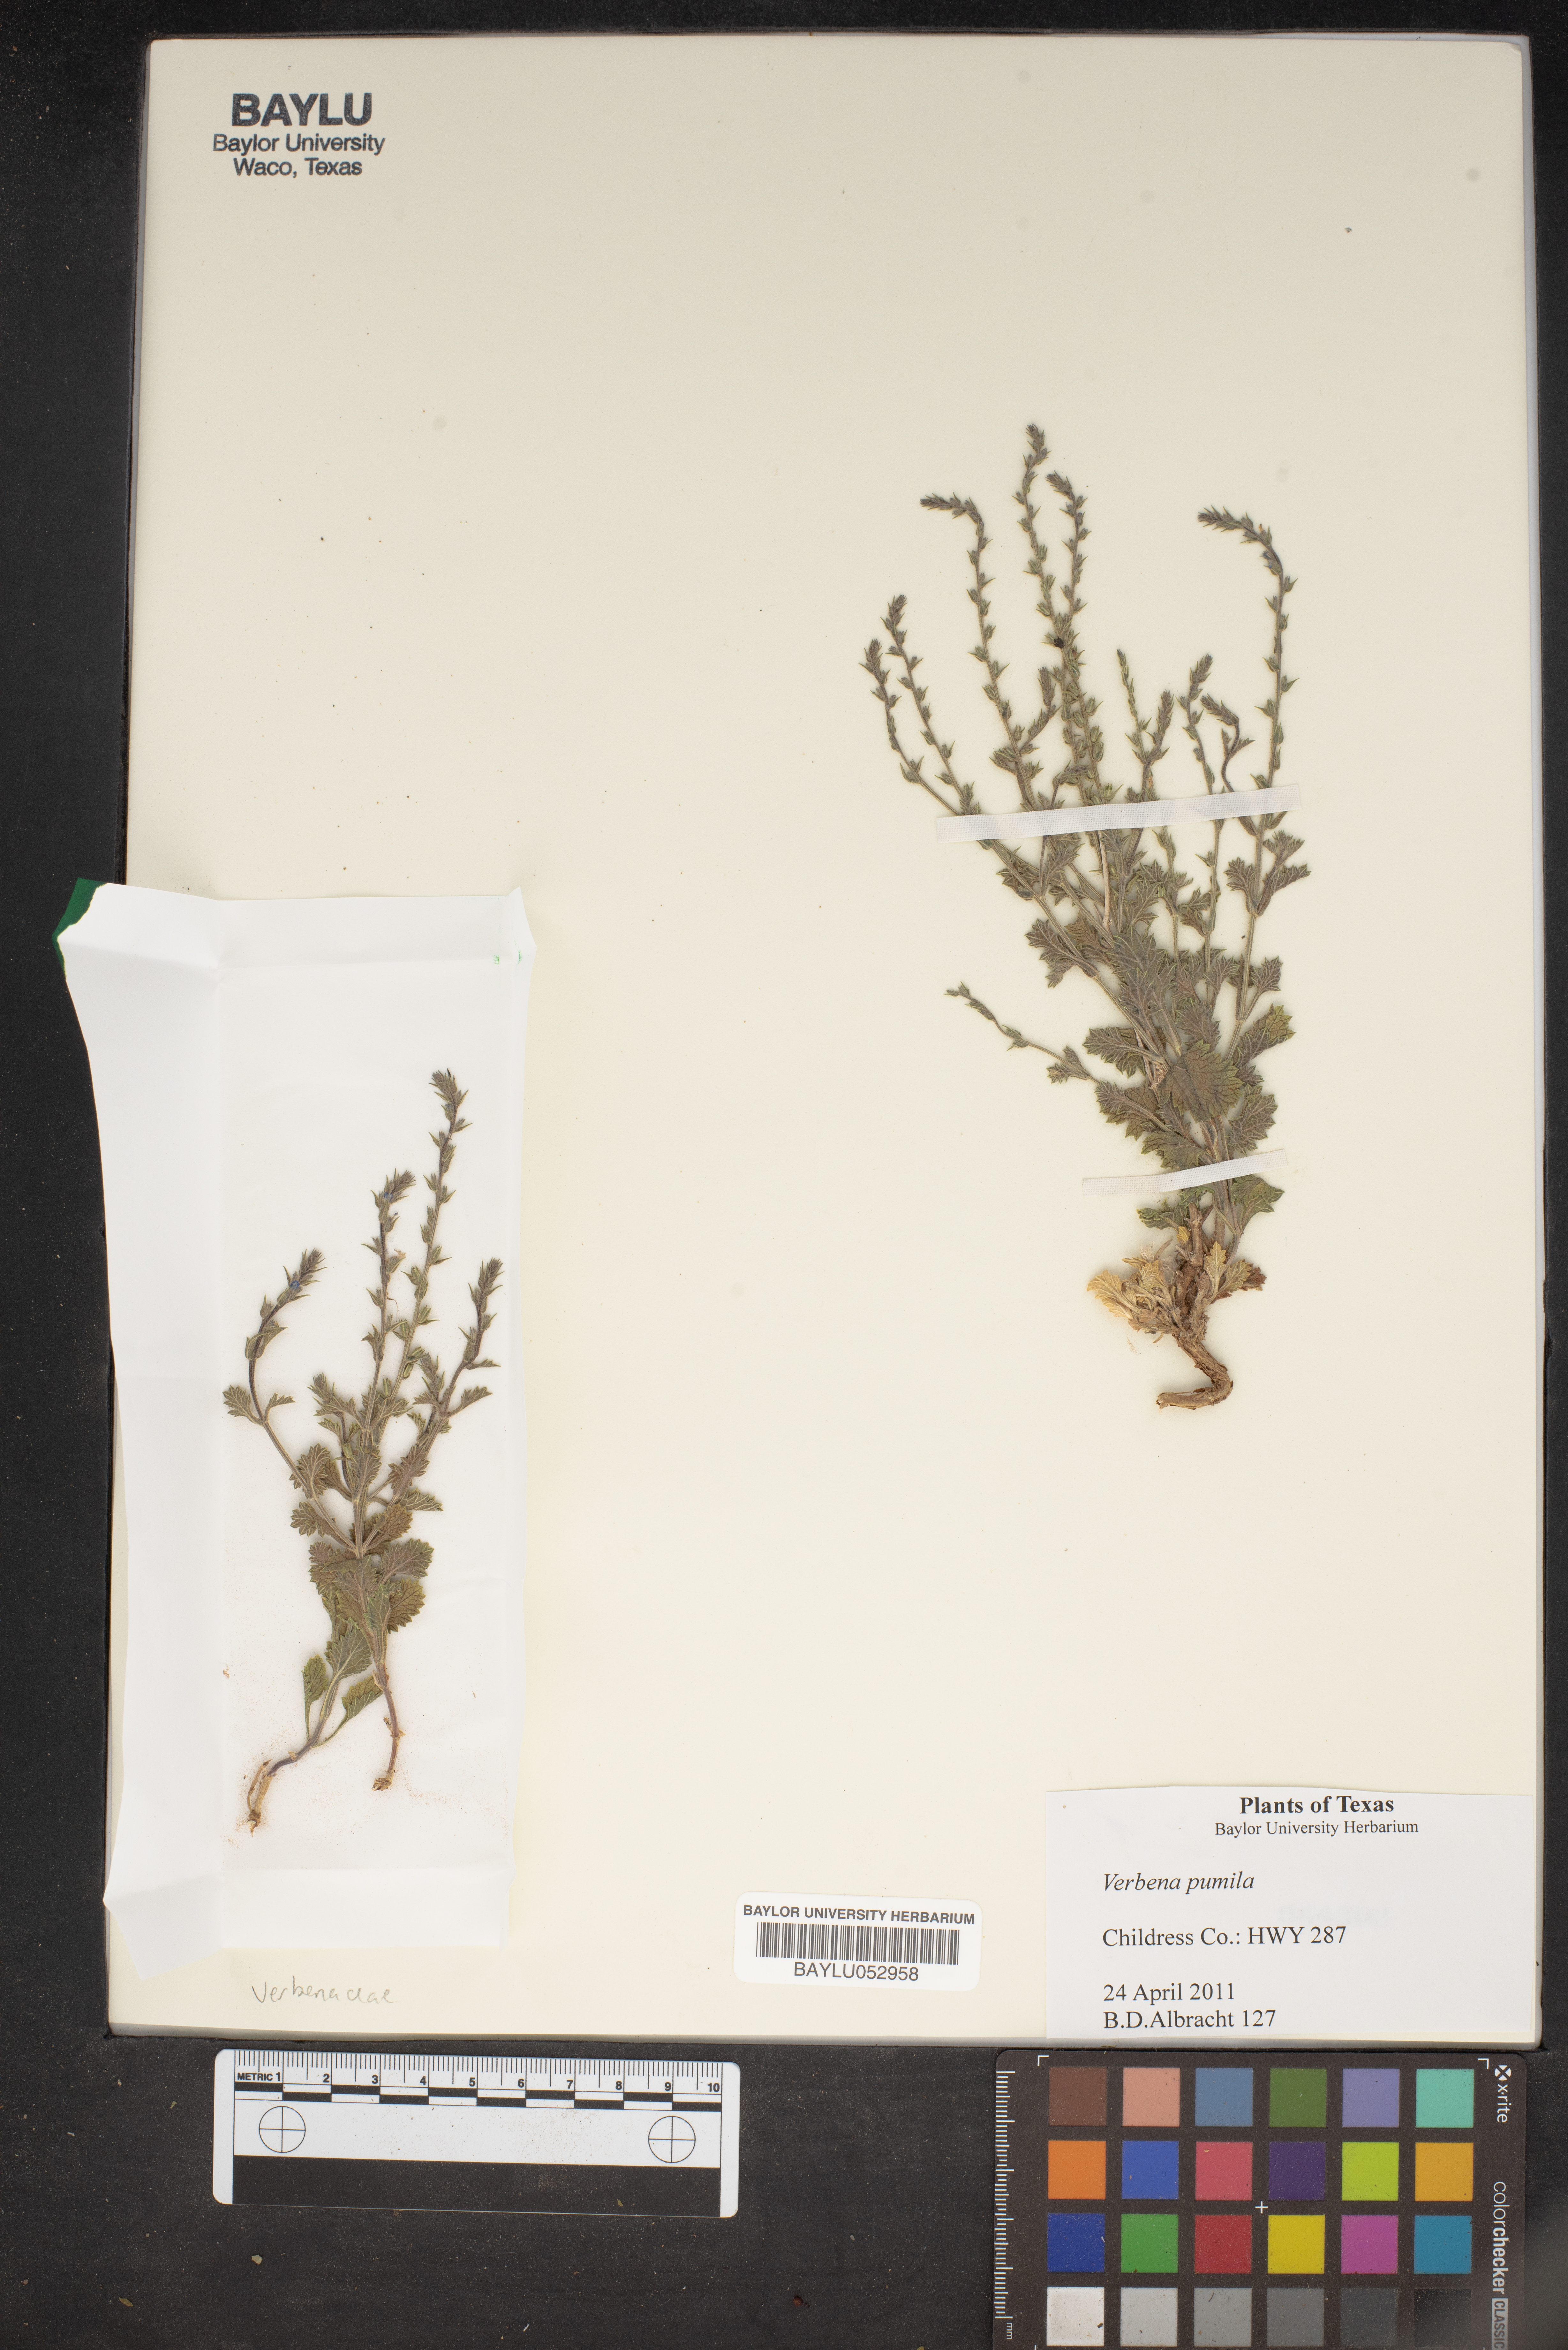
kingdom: Plantae
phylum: Tracheophyta
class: Magnoliopsida
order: Lamiales
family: Verbenaceae
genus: Verbena
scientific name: Verbena pumila
